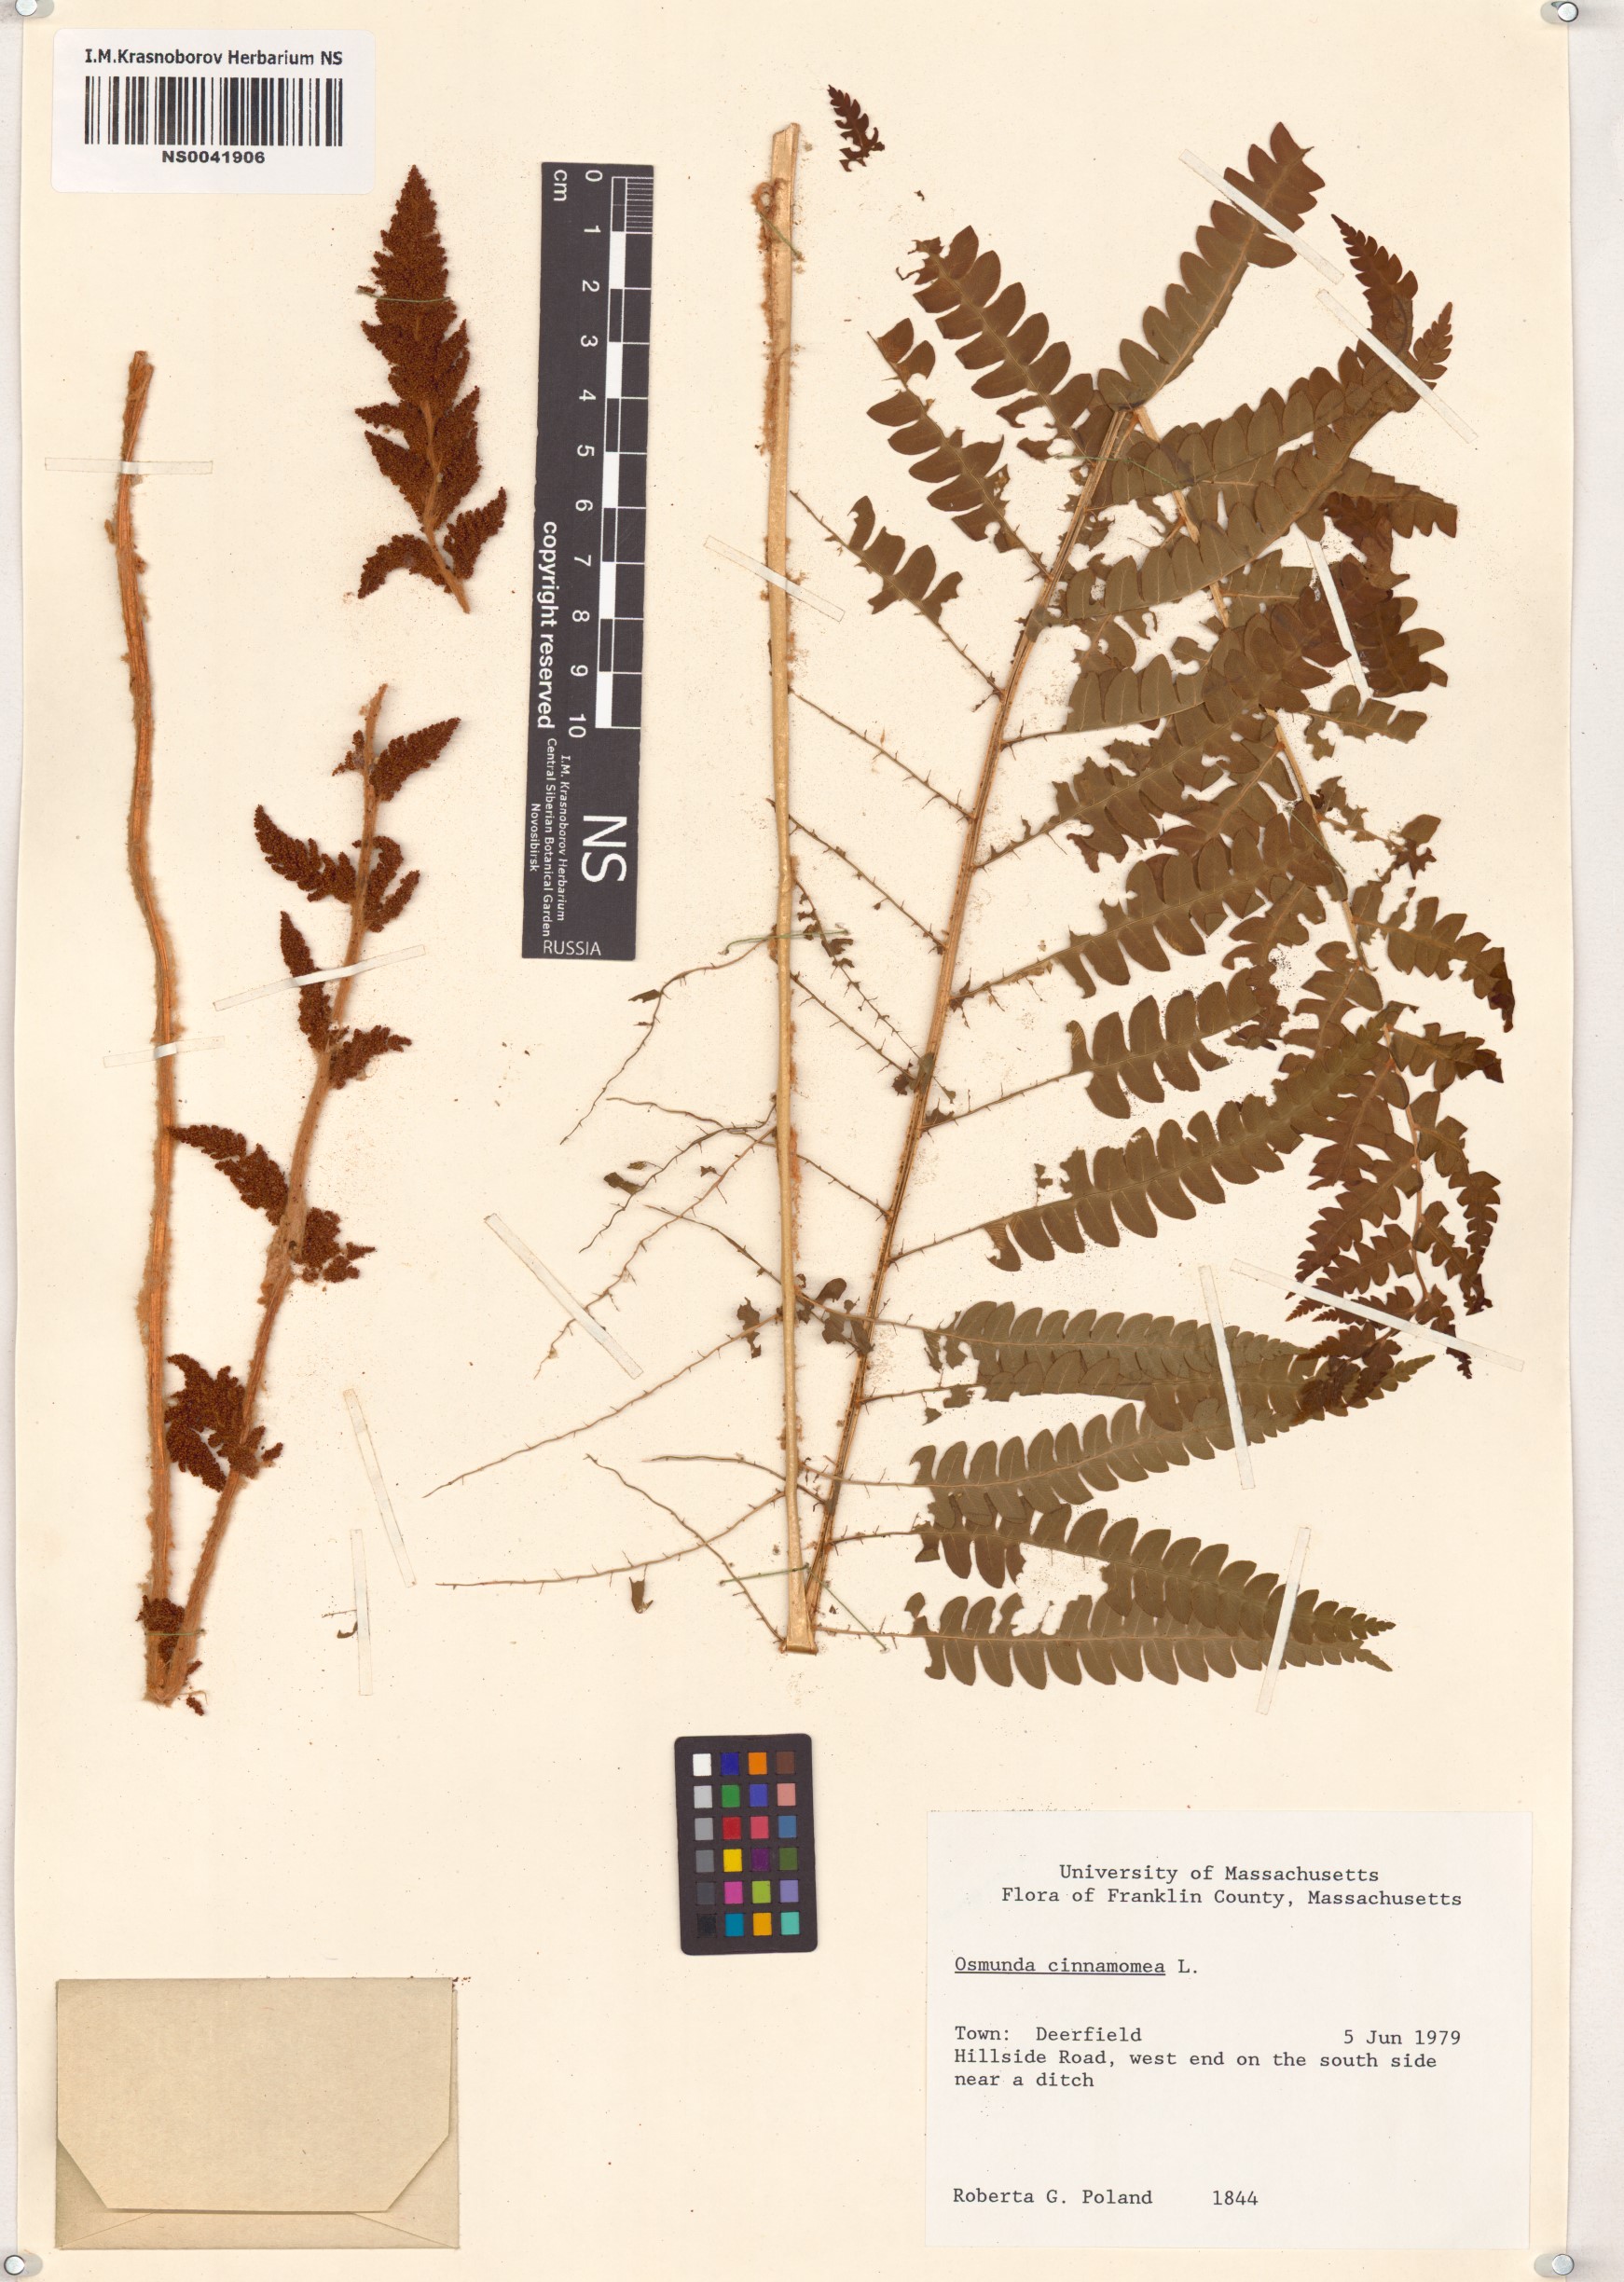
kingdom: Plantae
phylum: Tracheophyta
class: Polypodiopsida
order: Osmundales
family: Osmundaceae
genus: Osmundastrum
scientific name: Osmundastrum cinnamomeum
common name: Cinnamon fern
